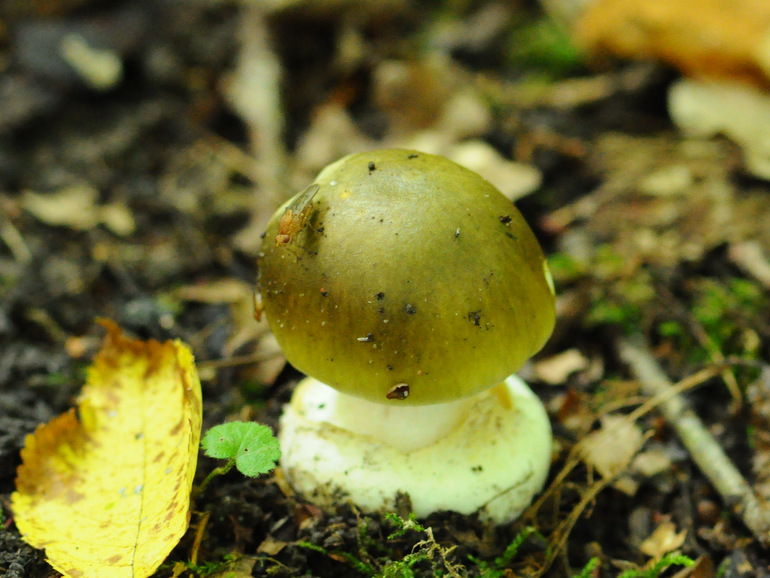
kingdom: Fungi
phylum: Basidiomycota
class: Agaricomycetes
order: Agaricales
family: Amanitaceae
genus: Amanita
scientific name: Amanita phalloides
